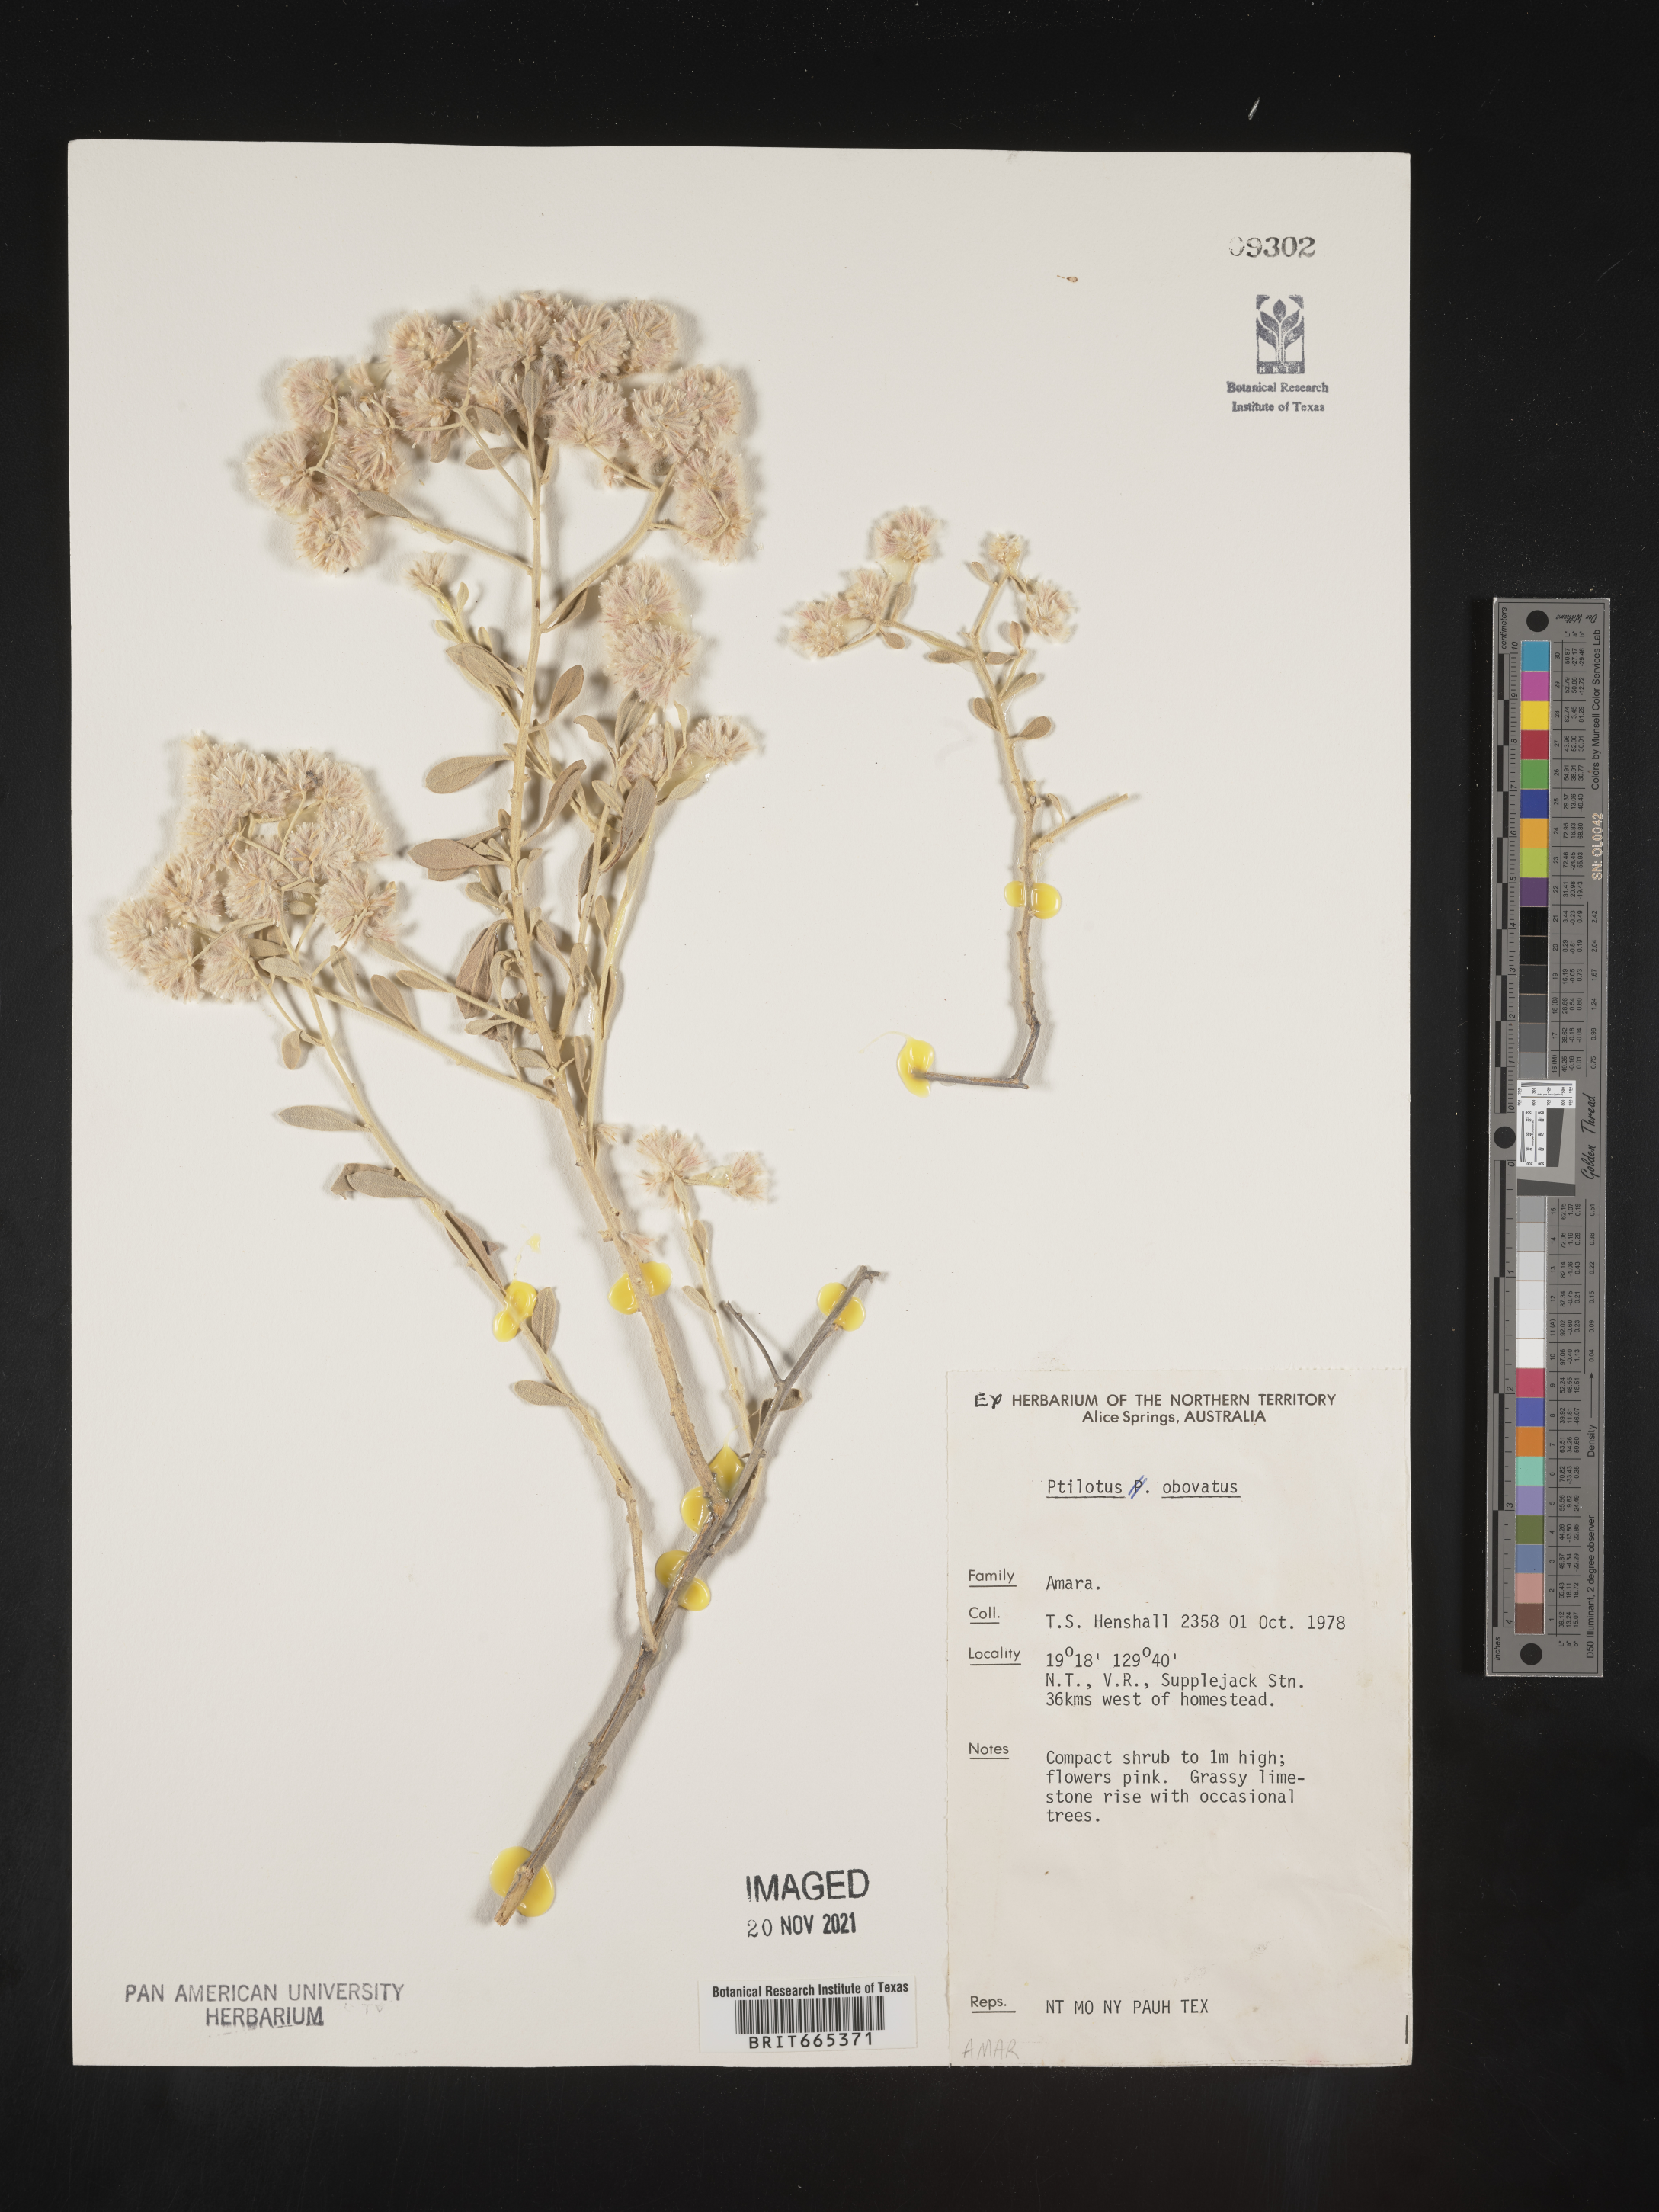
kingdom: Plantae
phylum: Tracheophyta
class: Magnoliopsida
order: Caryophyllales
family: Amaranthaceae
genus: Ptilotus
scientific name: Ptilotus
